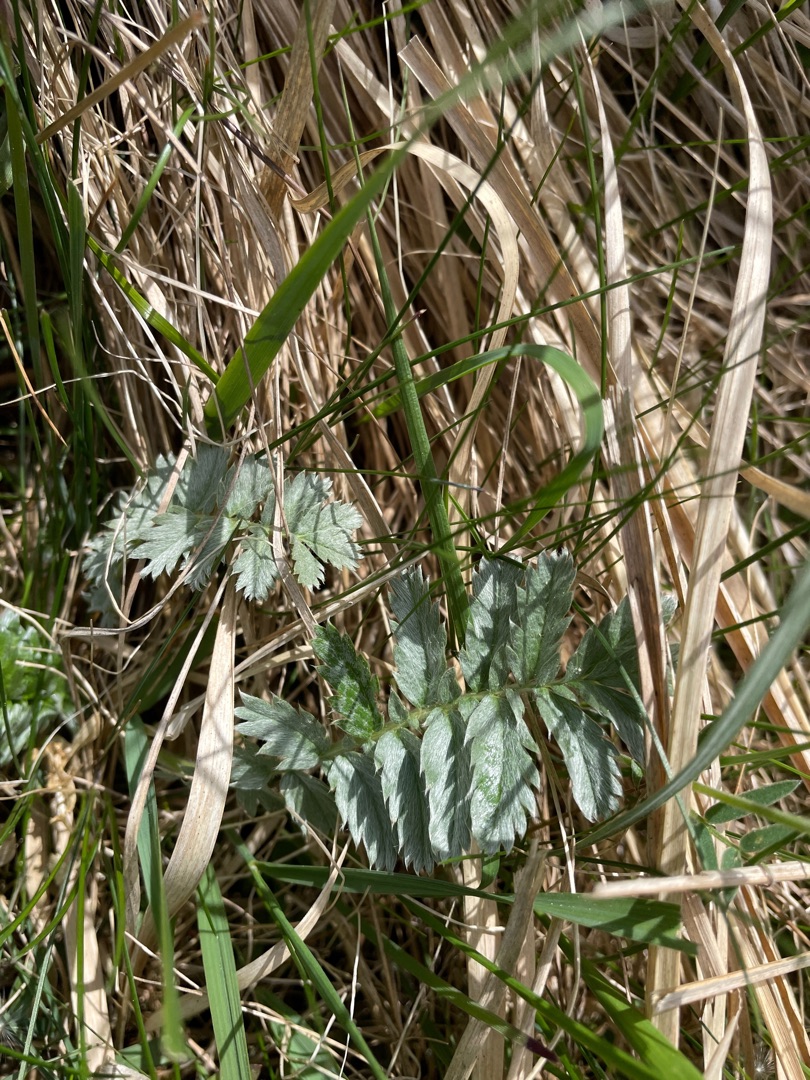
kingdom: Plantae
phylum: Tracheophyta
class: Magnoliopsida
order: Rosales
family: Rosaceae
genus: Argentina
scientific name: Argentina anserina
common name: Gåsepotentil
